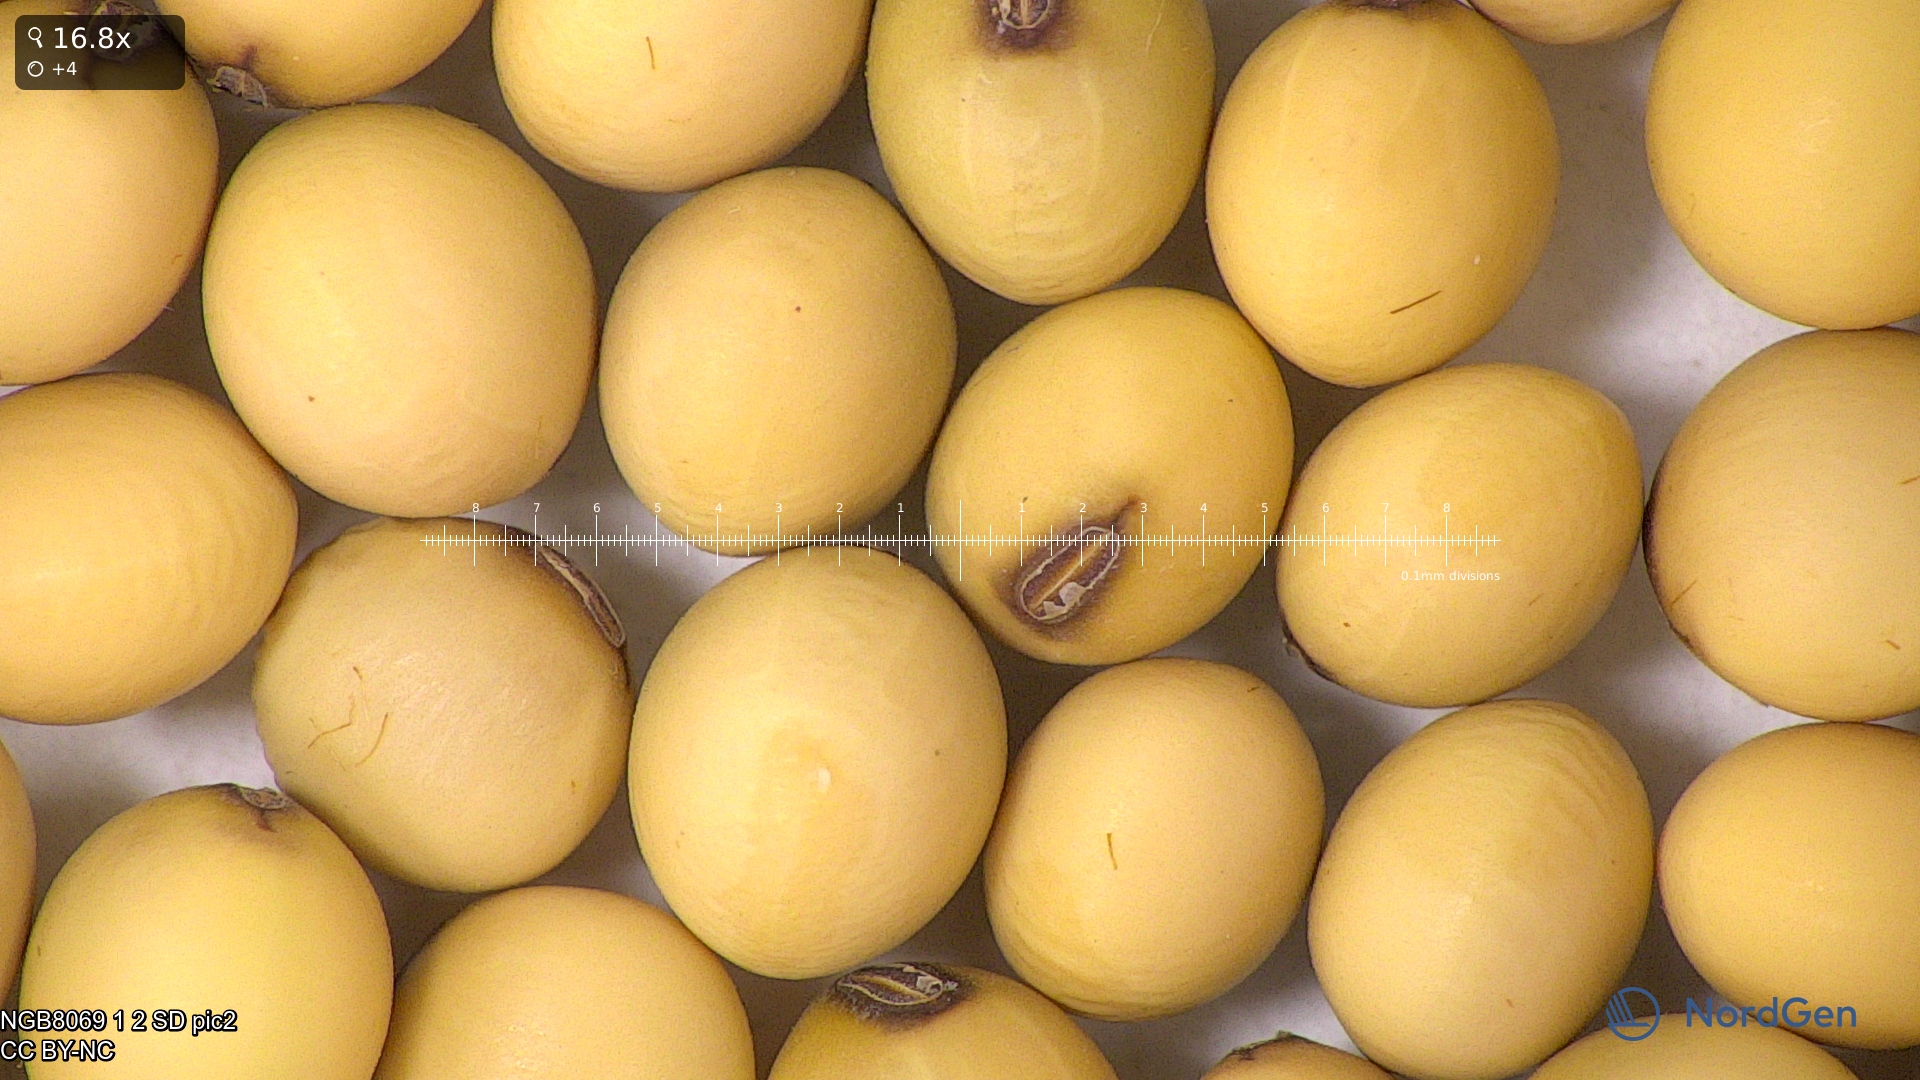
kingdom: Plantae
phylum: Tracheophyta
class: Magnoliopsida
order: Fabales
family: Fabaceae
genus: Glycine
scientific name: Glycine max
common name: Soya-bean
